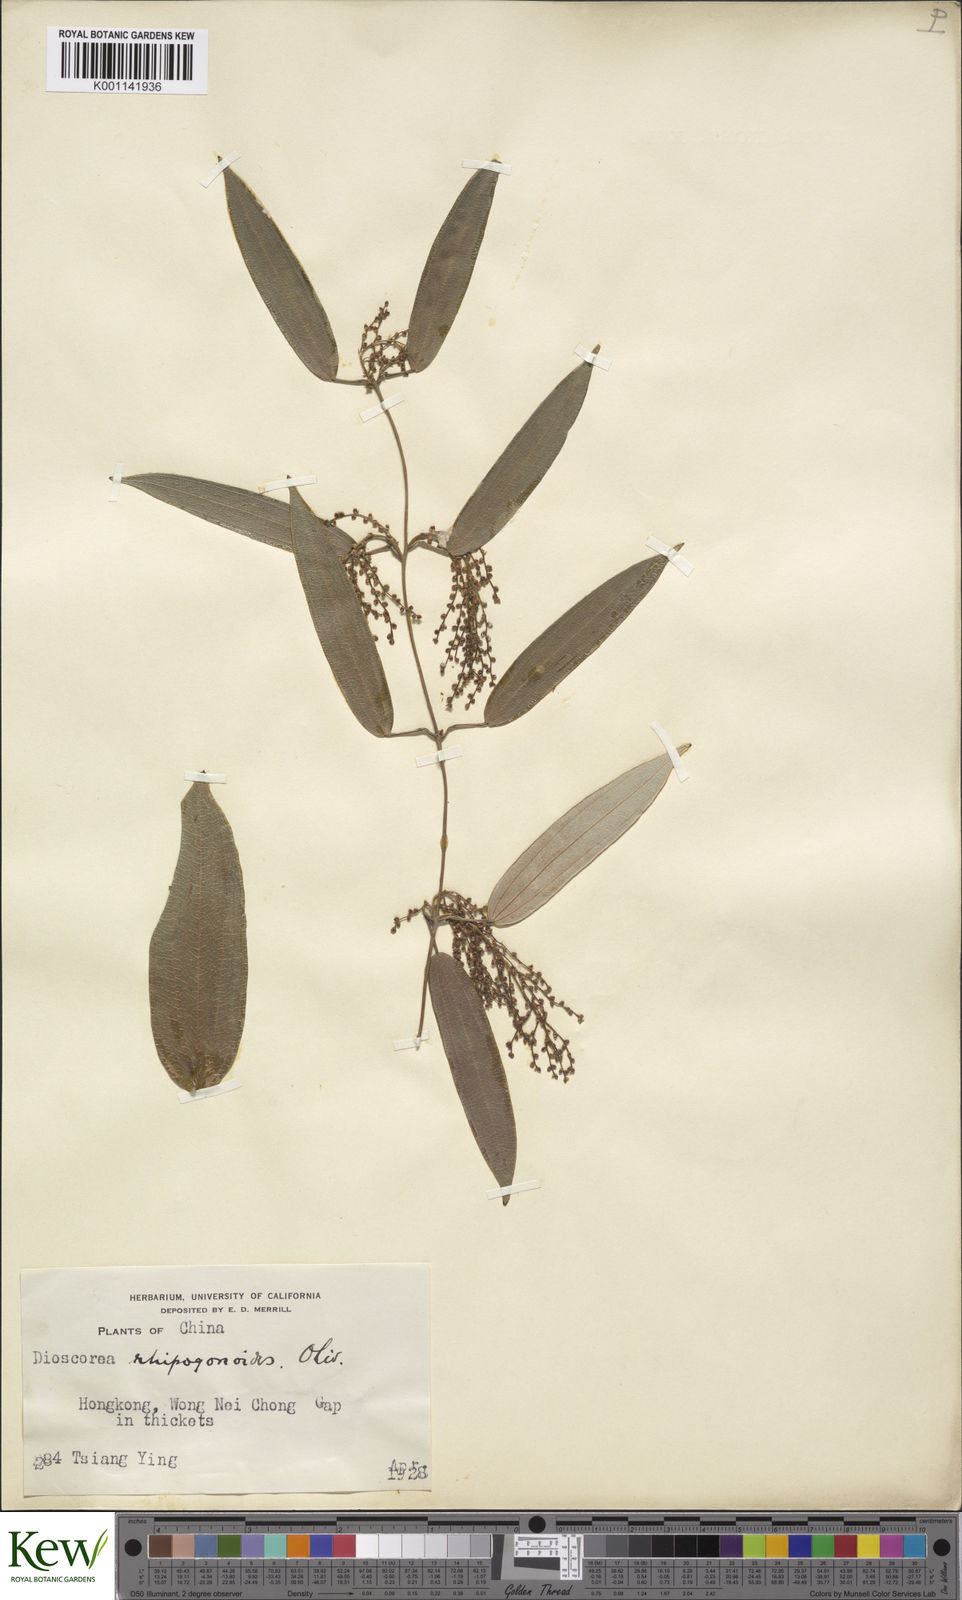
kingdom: Plantae
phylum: Tracheophyta
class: Liliopsida
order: Dioscoreales
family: Dioscoreaceae
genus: Dioscorea
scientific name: Dioscorea cirrhosa
